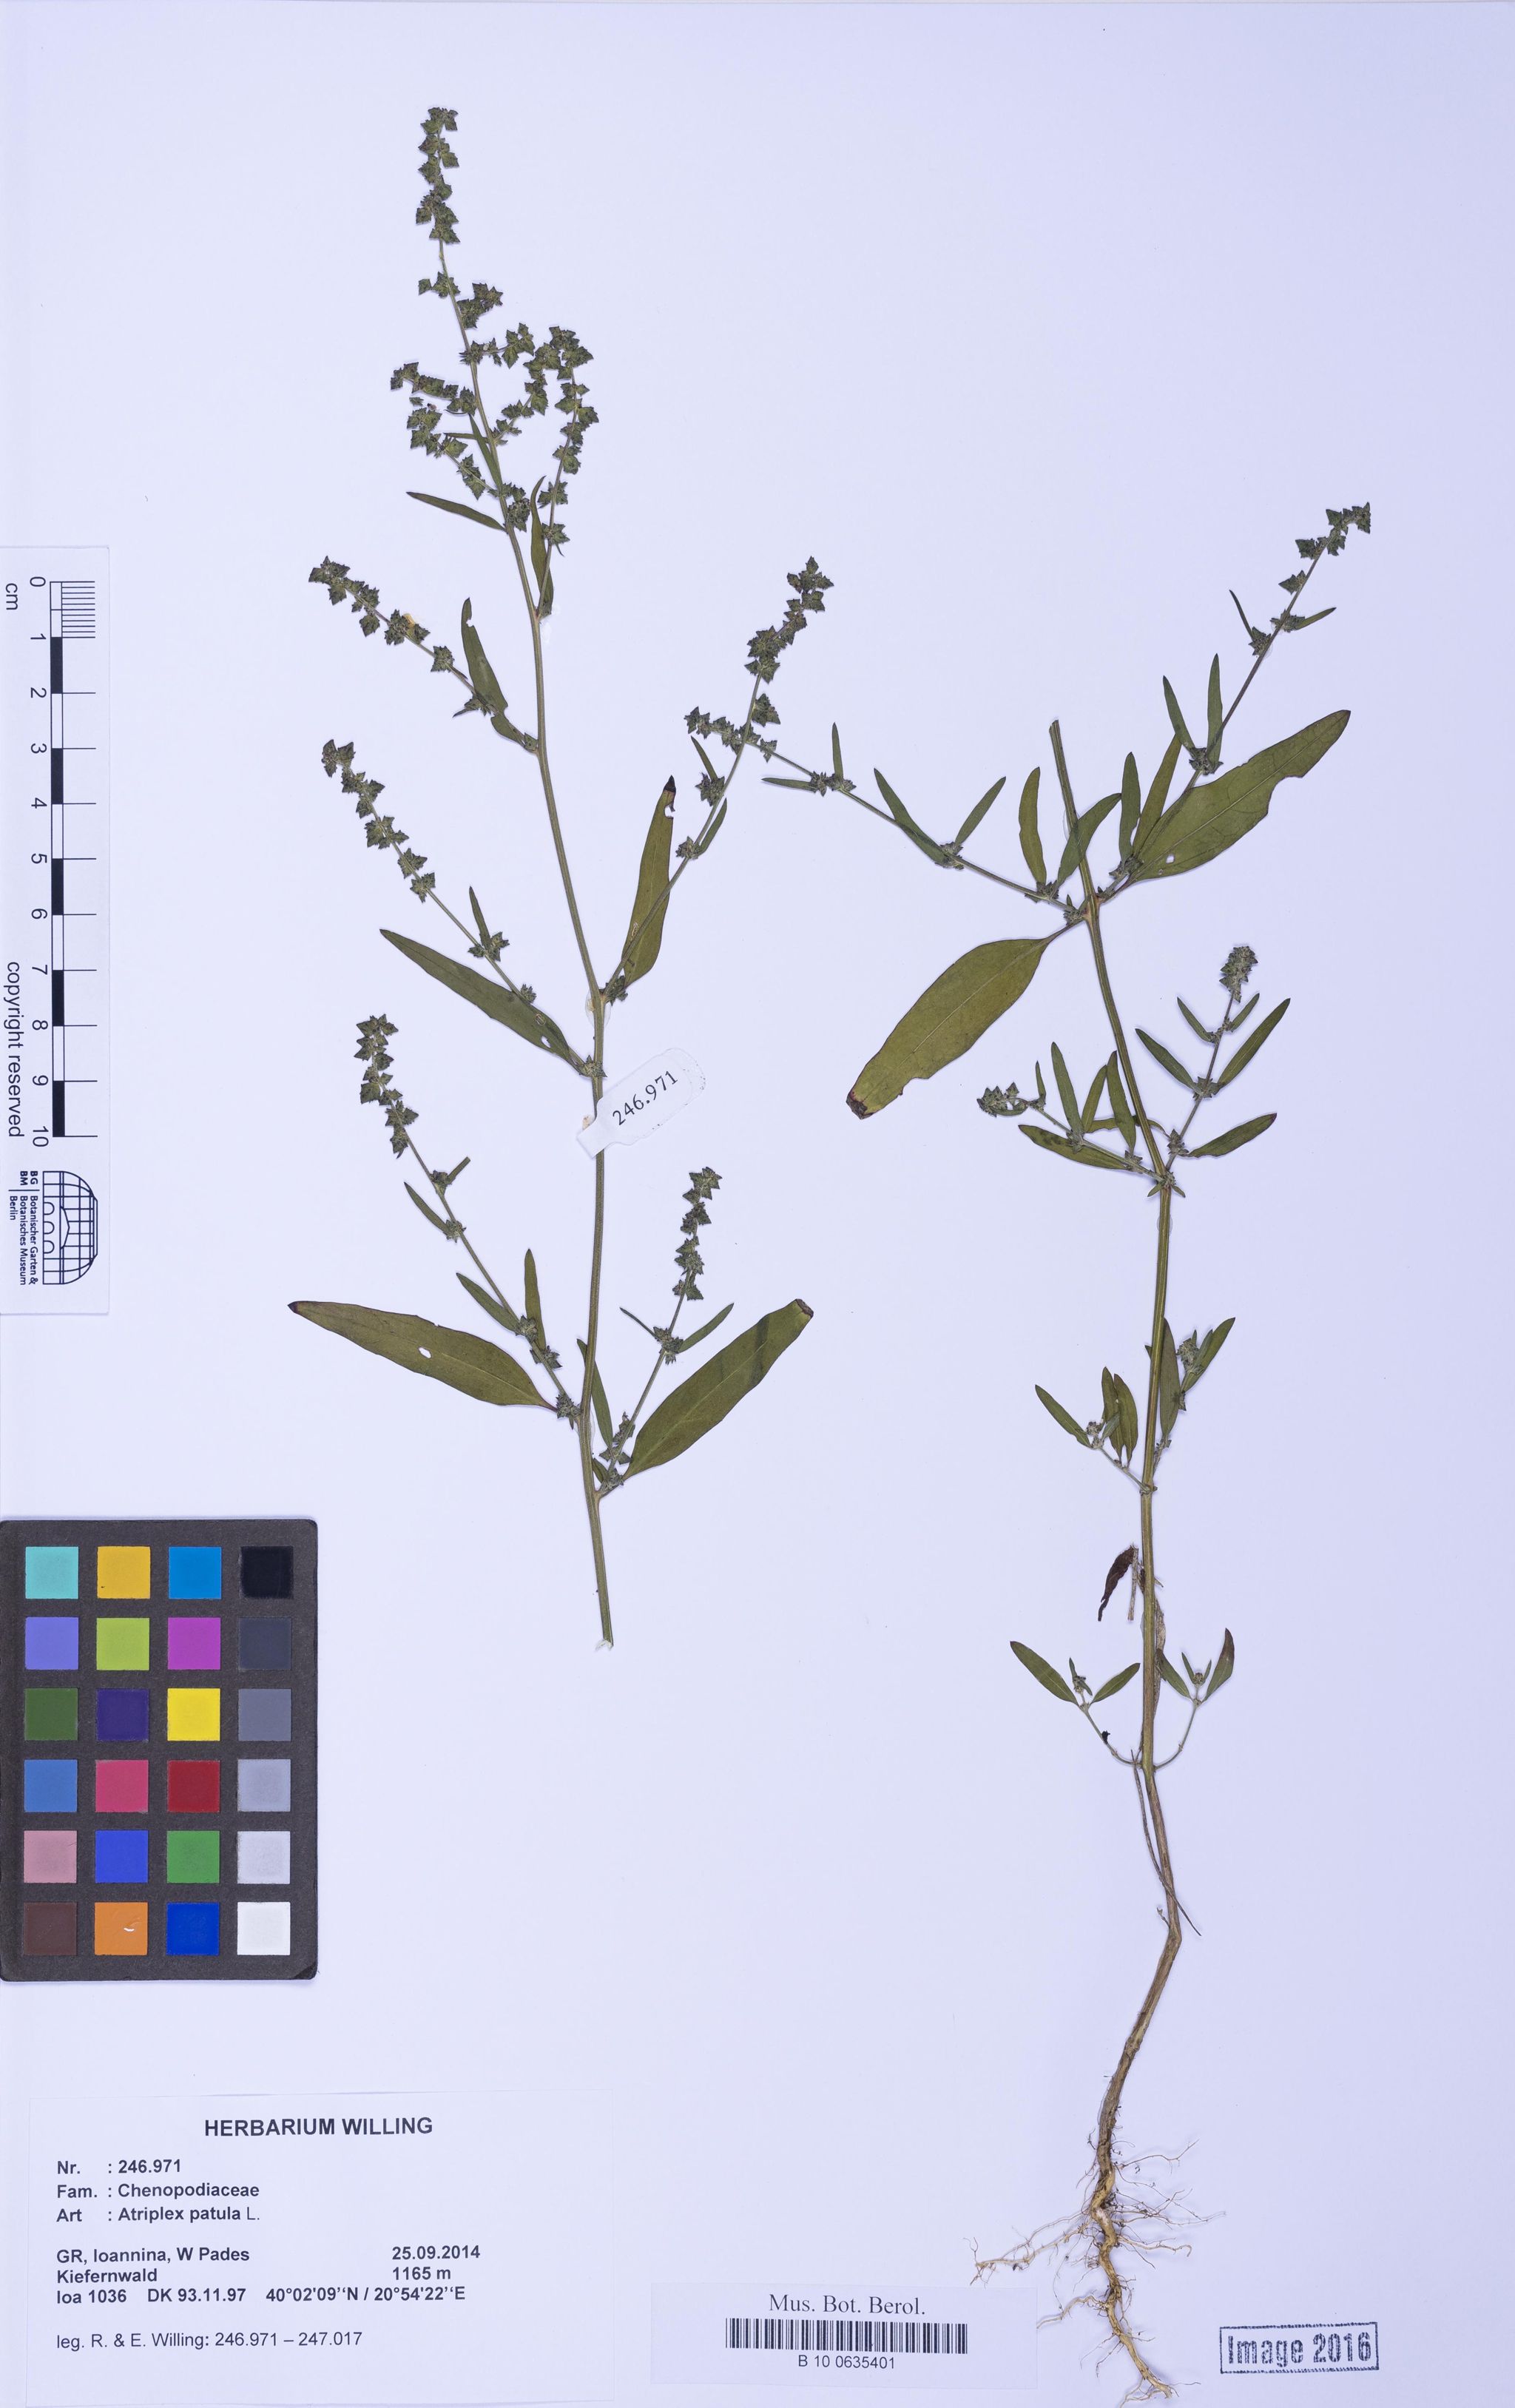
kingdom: Plantae
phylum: Tracheophyta
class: Magnoliopsida
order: Caryophyllales
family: Amaranthaceae
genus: Atriplex
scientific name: Atriplex patula
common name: Common orache
